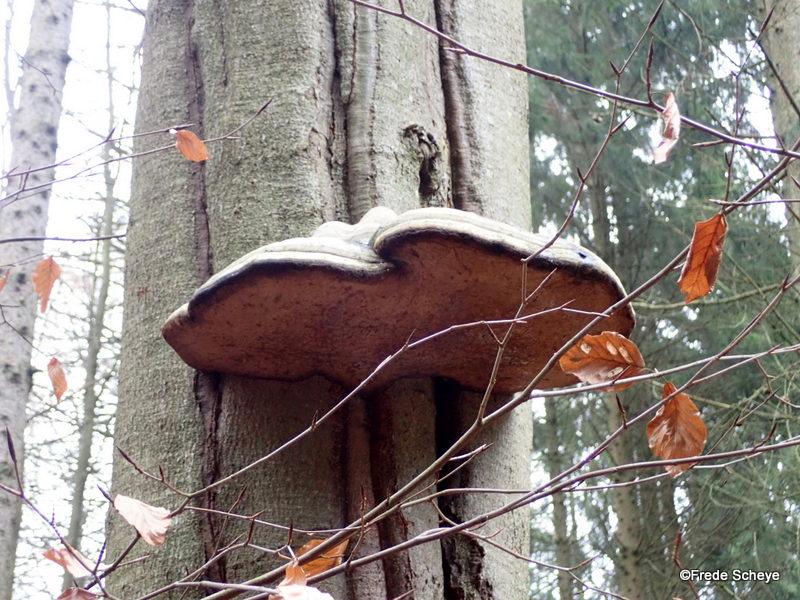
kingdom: Fungi
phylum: Basidiomycota
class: Agaricomycetes
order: Polyporales
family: Polyporaceae
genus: Fomes
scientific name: Fomes fomentarius
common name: tøndersvamp
